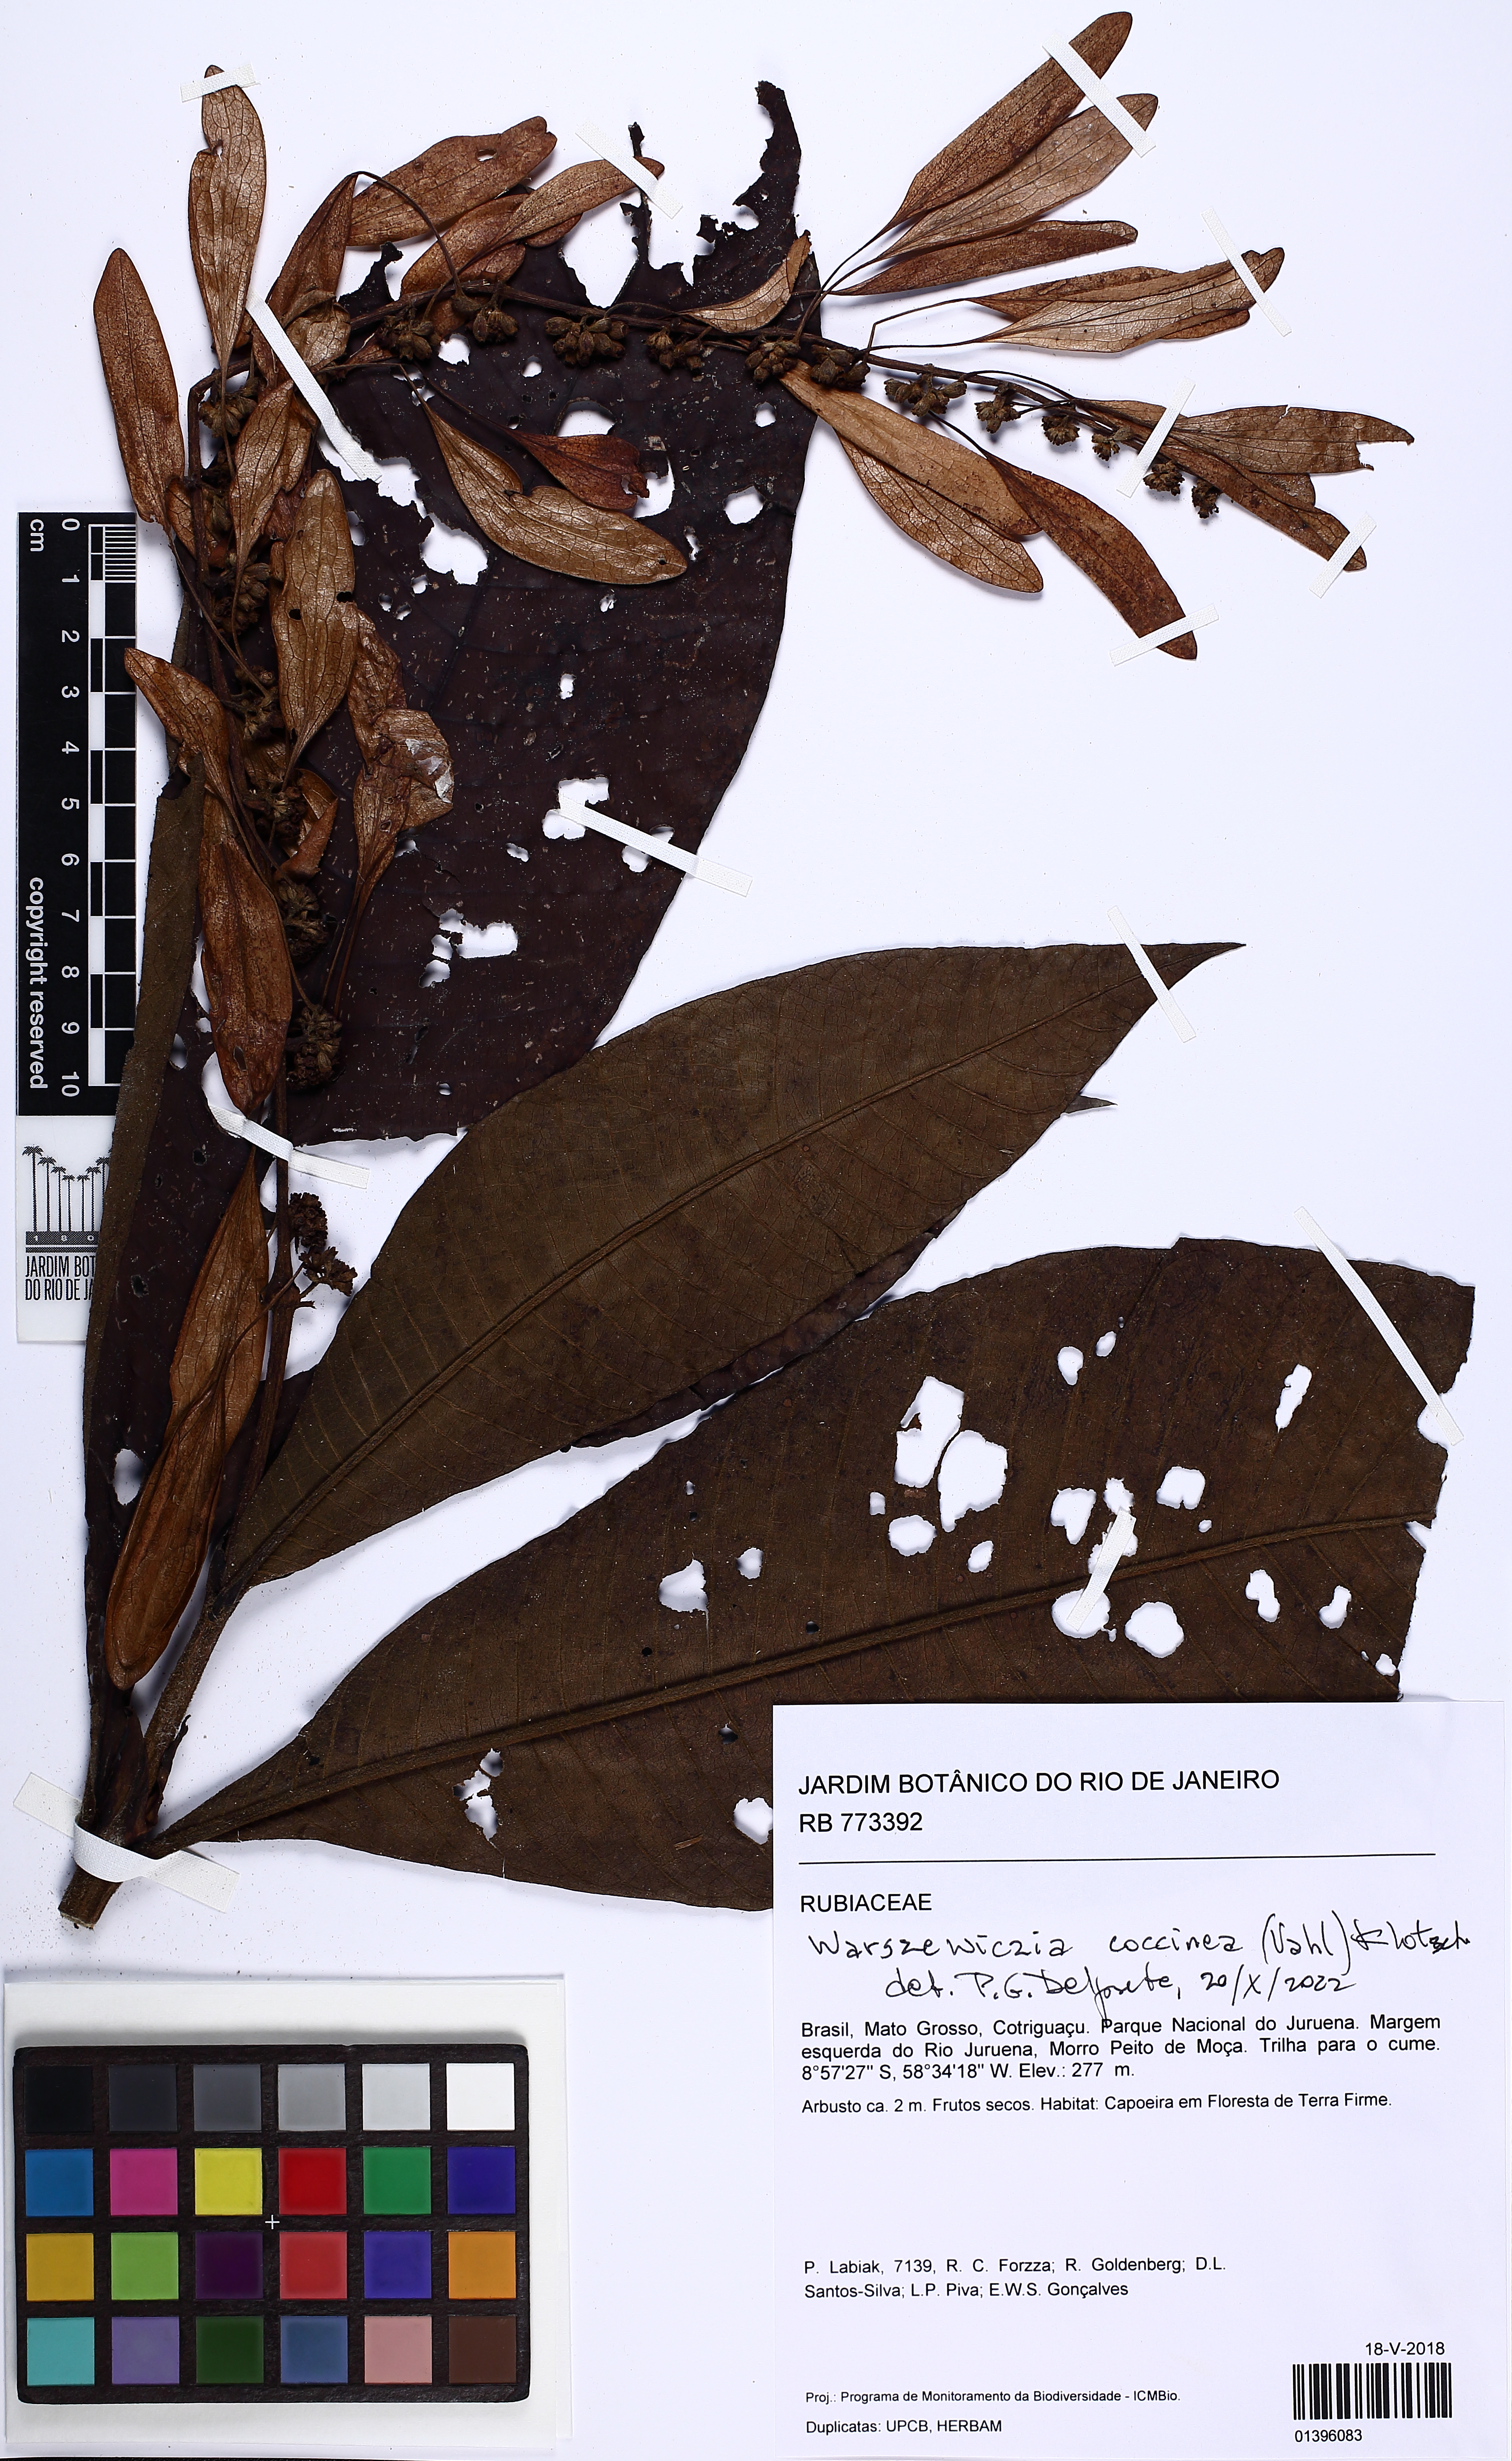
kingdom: Plantae
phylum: Tracheophyta
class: Magnoliopsida
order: Gentianales
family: Rubiaceae
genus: Warszewiczia
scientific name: Warszewiczia coccinea
